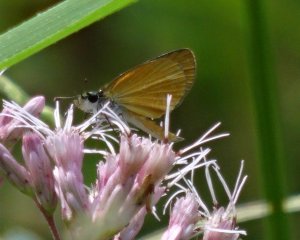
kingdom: Animalia
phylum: Arthropoda
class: Insecta
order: Lepidoptera
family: Hesperiidae
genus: Ancyloxypha
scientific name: Ancyloxypha numitor
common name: Least Skipper
